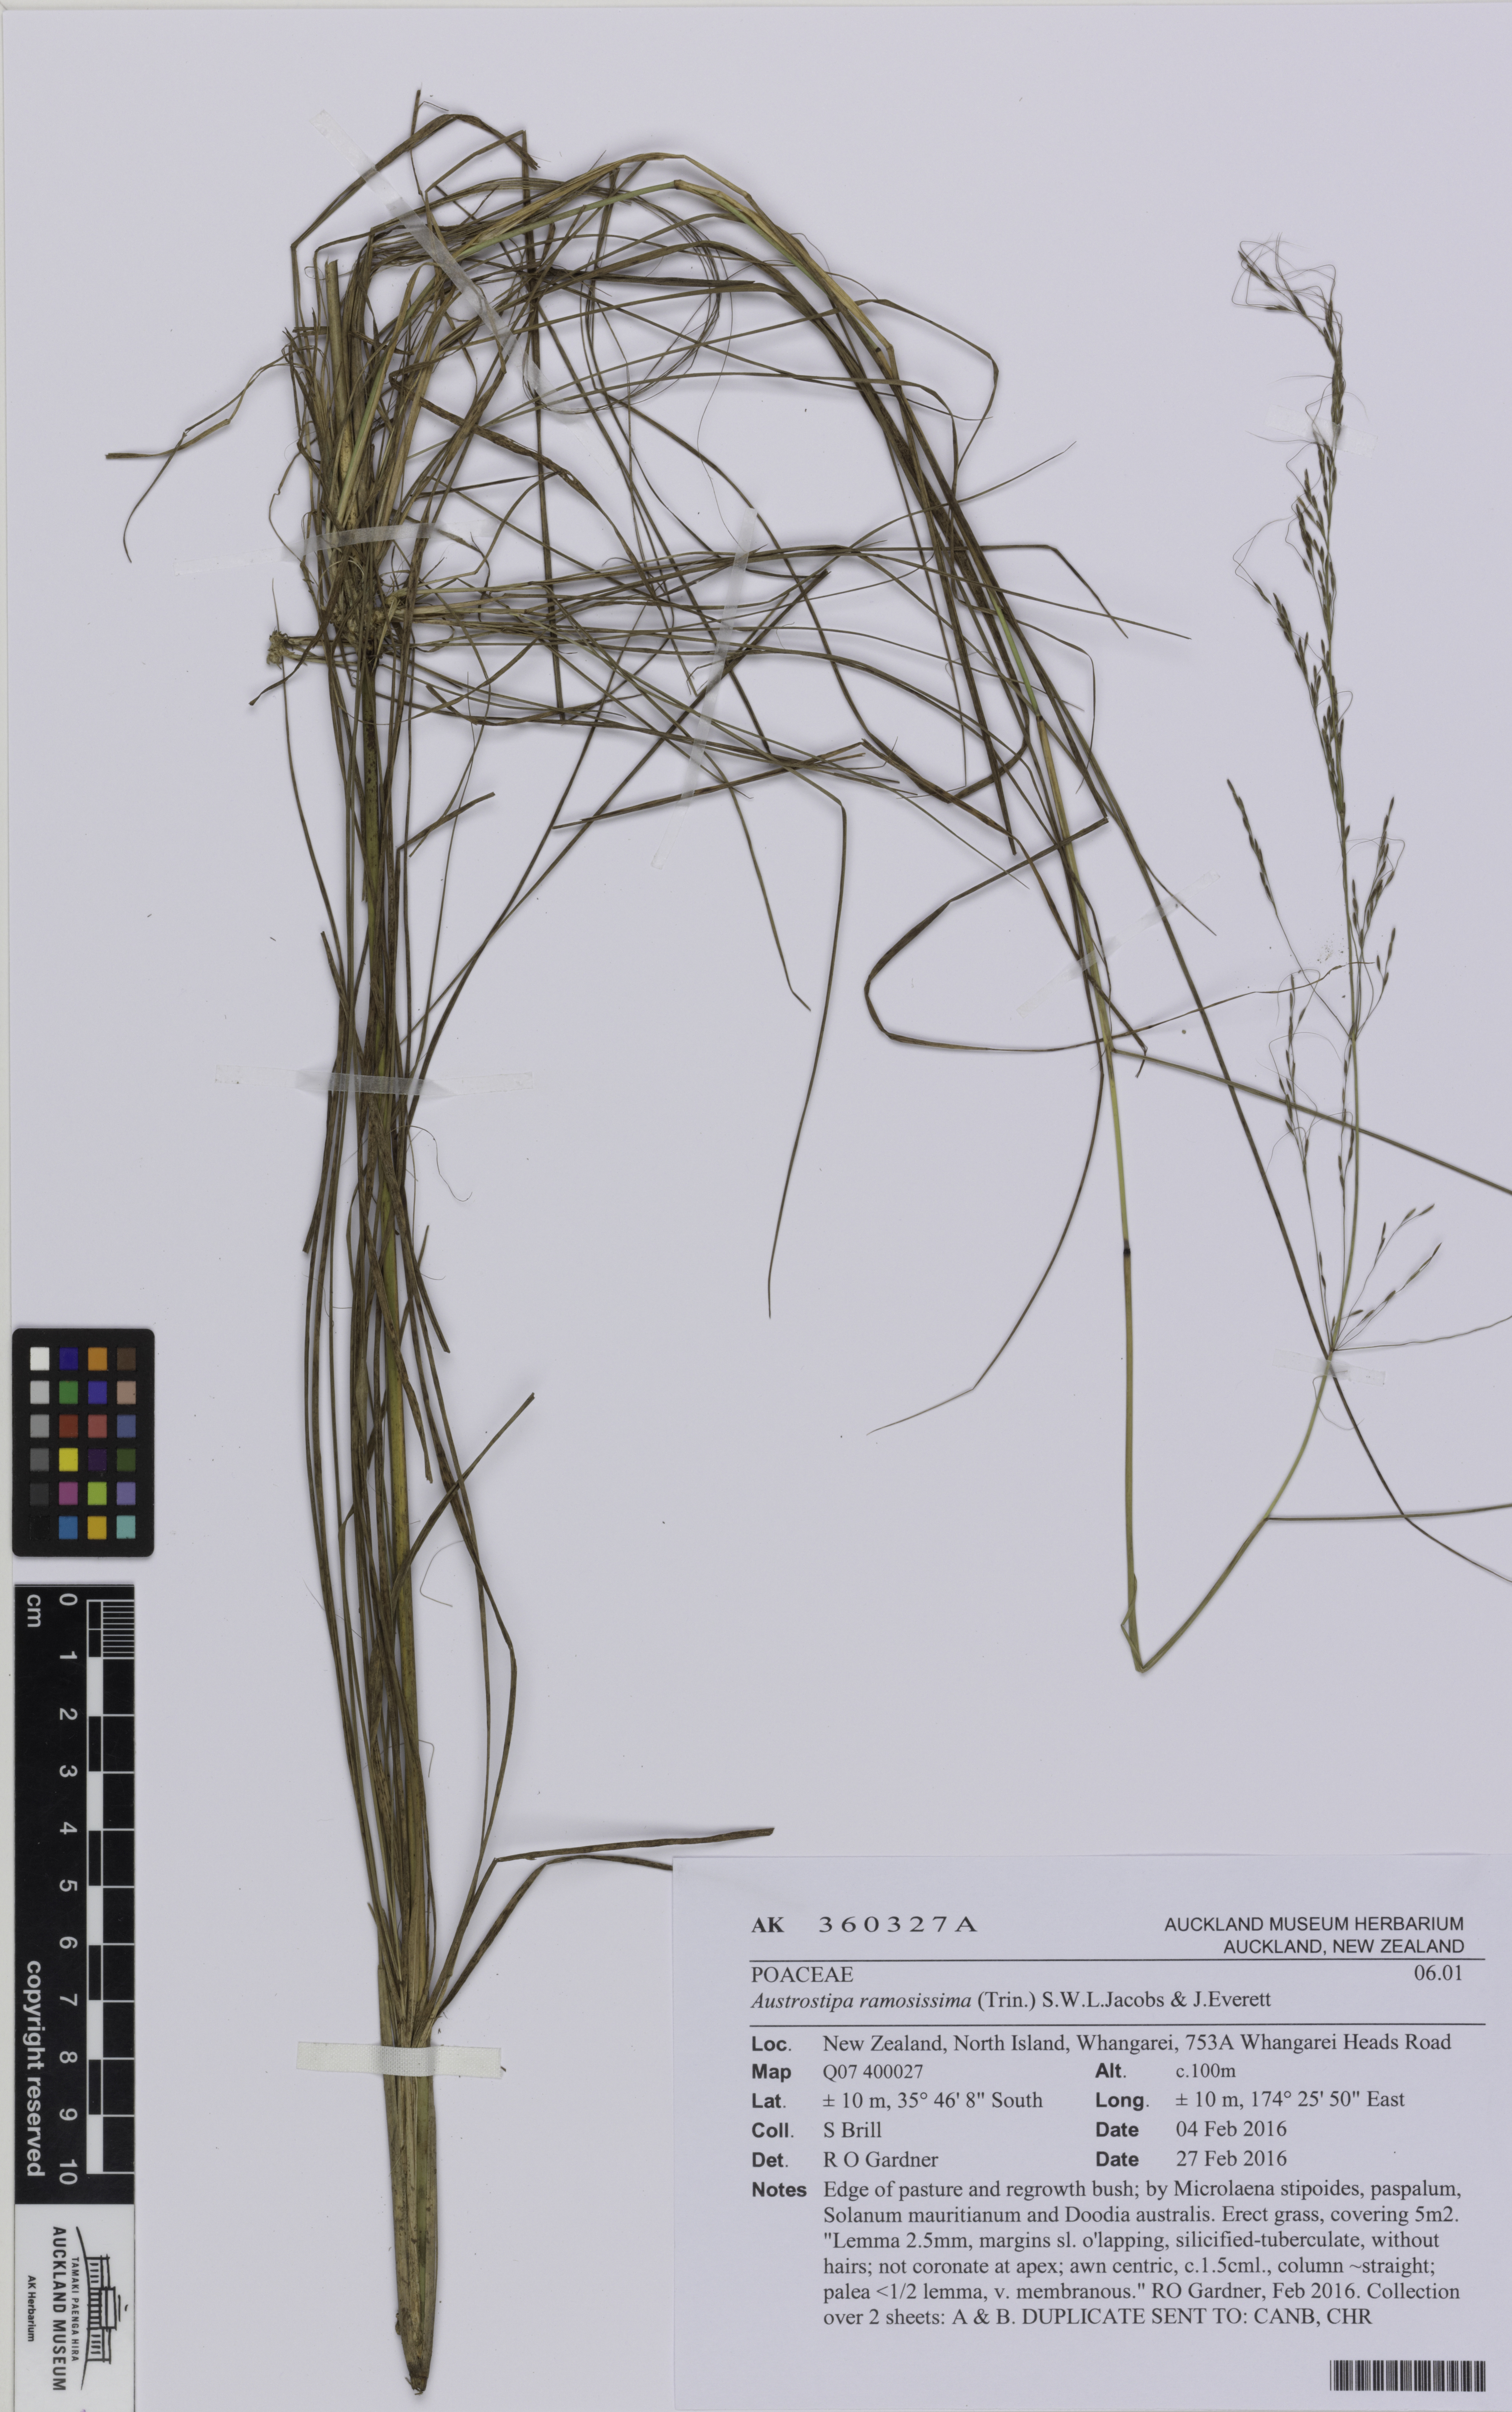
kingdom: Plantae
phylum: Tracheophyta
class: Liliopsida
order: Poales
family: Poaceae
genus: Austrostipa
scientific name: Austrostipa ramosissima
